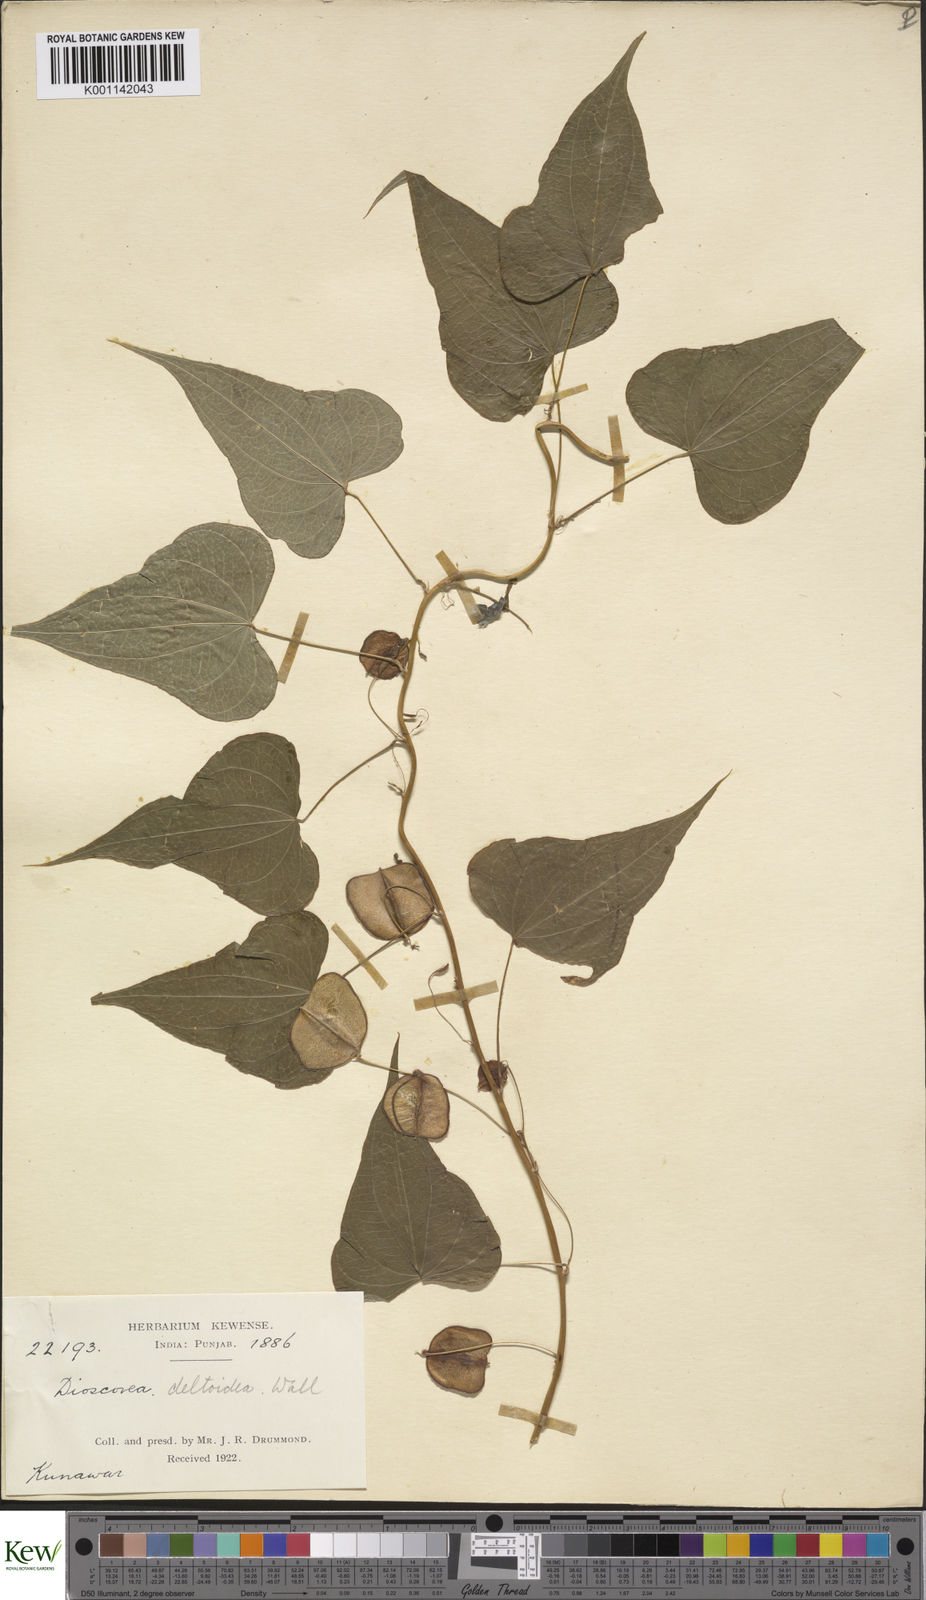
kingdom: Plantae
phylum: Tracheophyta
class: Liliopsida
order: Dioscoreales
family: Dioscoreaceae
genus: Dioscorea
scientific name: Dioscorea deltoidea
